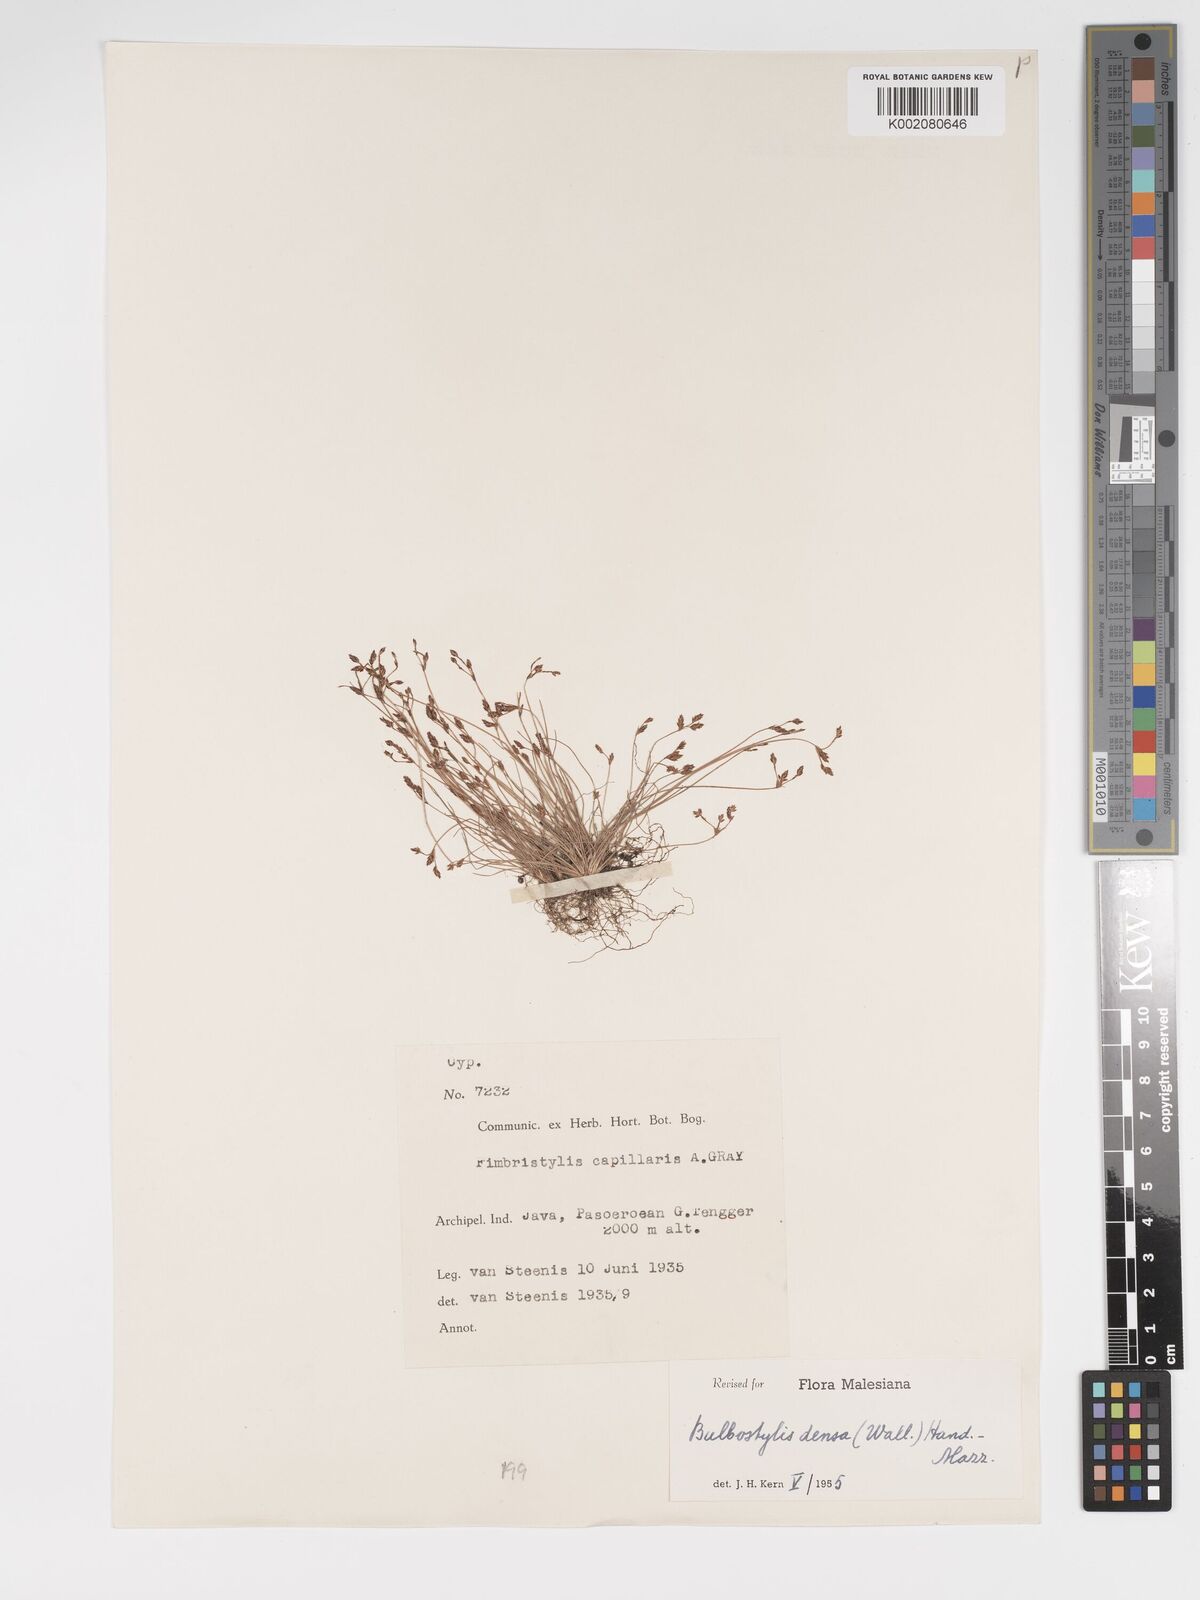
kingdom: Plantae
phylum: Tracheophyta
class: Liliopsida
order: Poales
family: Cyperaceae
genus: Bulbostylis
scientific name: Bulbostylis densa
